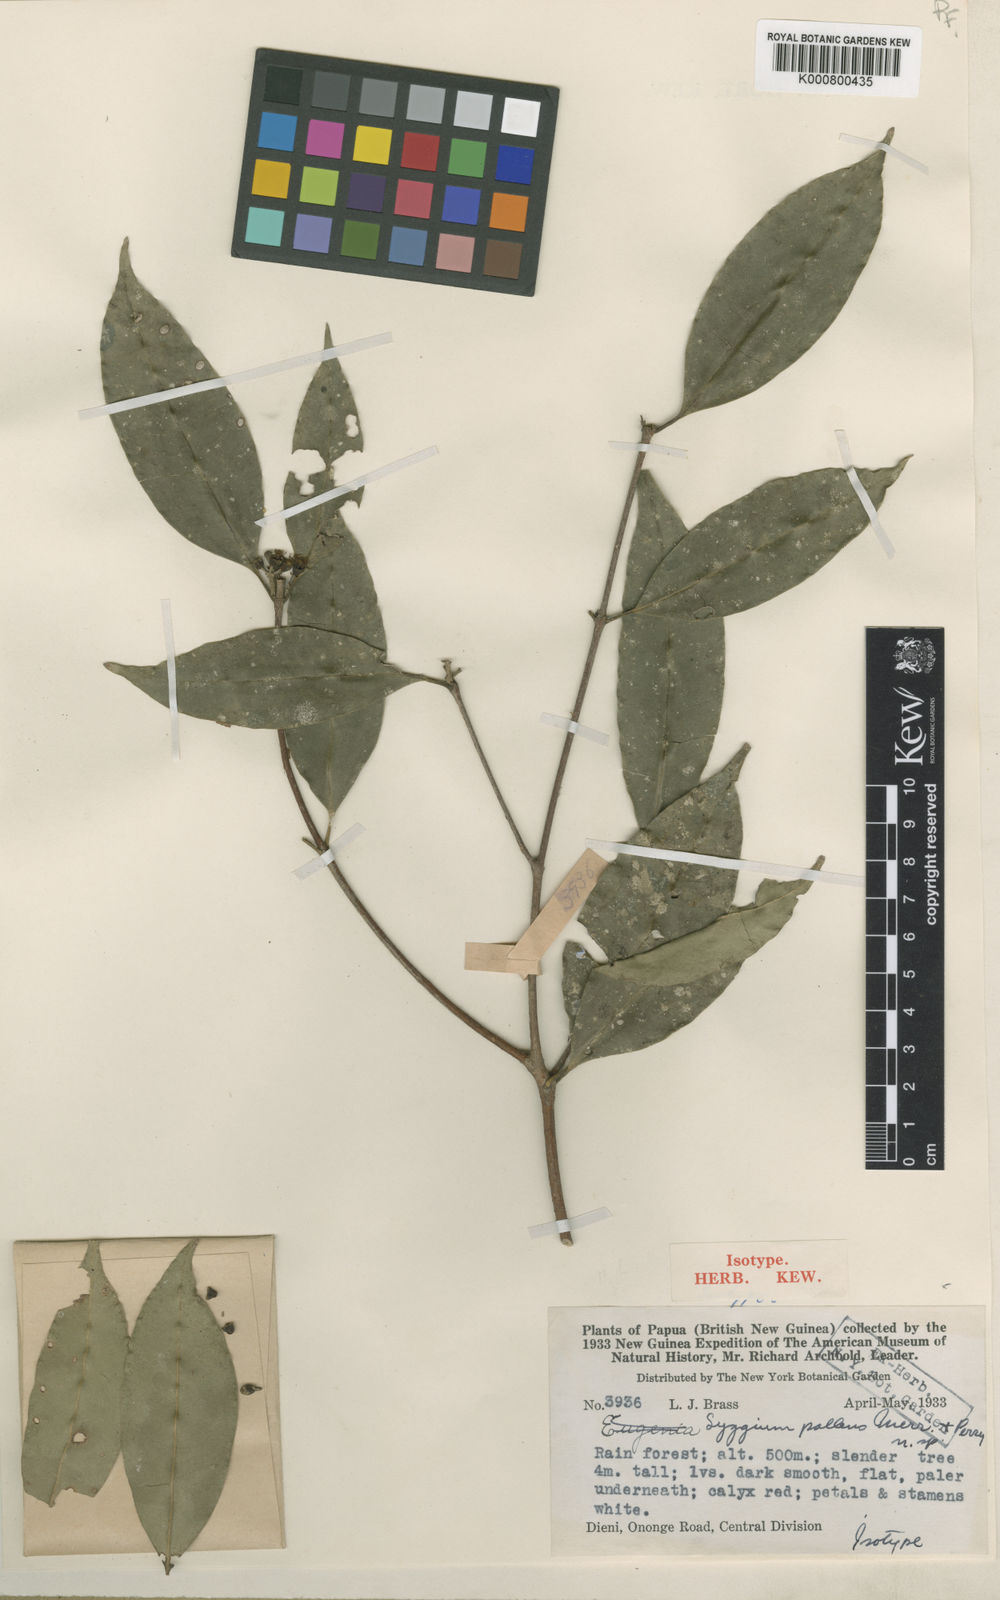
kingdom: Plantae
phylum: Tracheophyta
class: Magnoliopsida
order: Myrtales
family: Myrtaceae
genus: Syzygium
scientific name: Syzygium pallens
